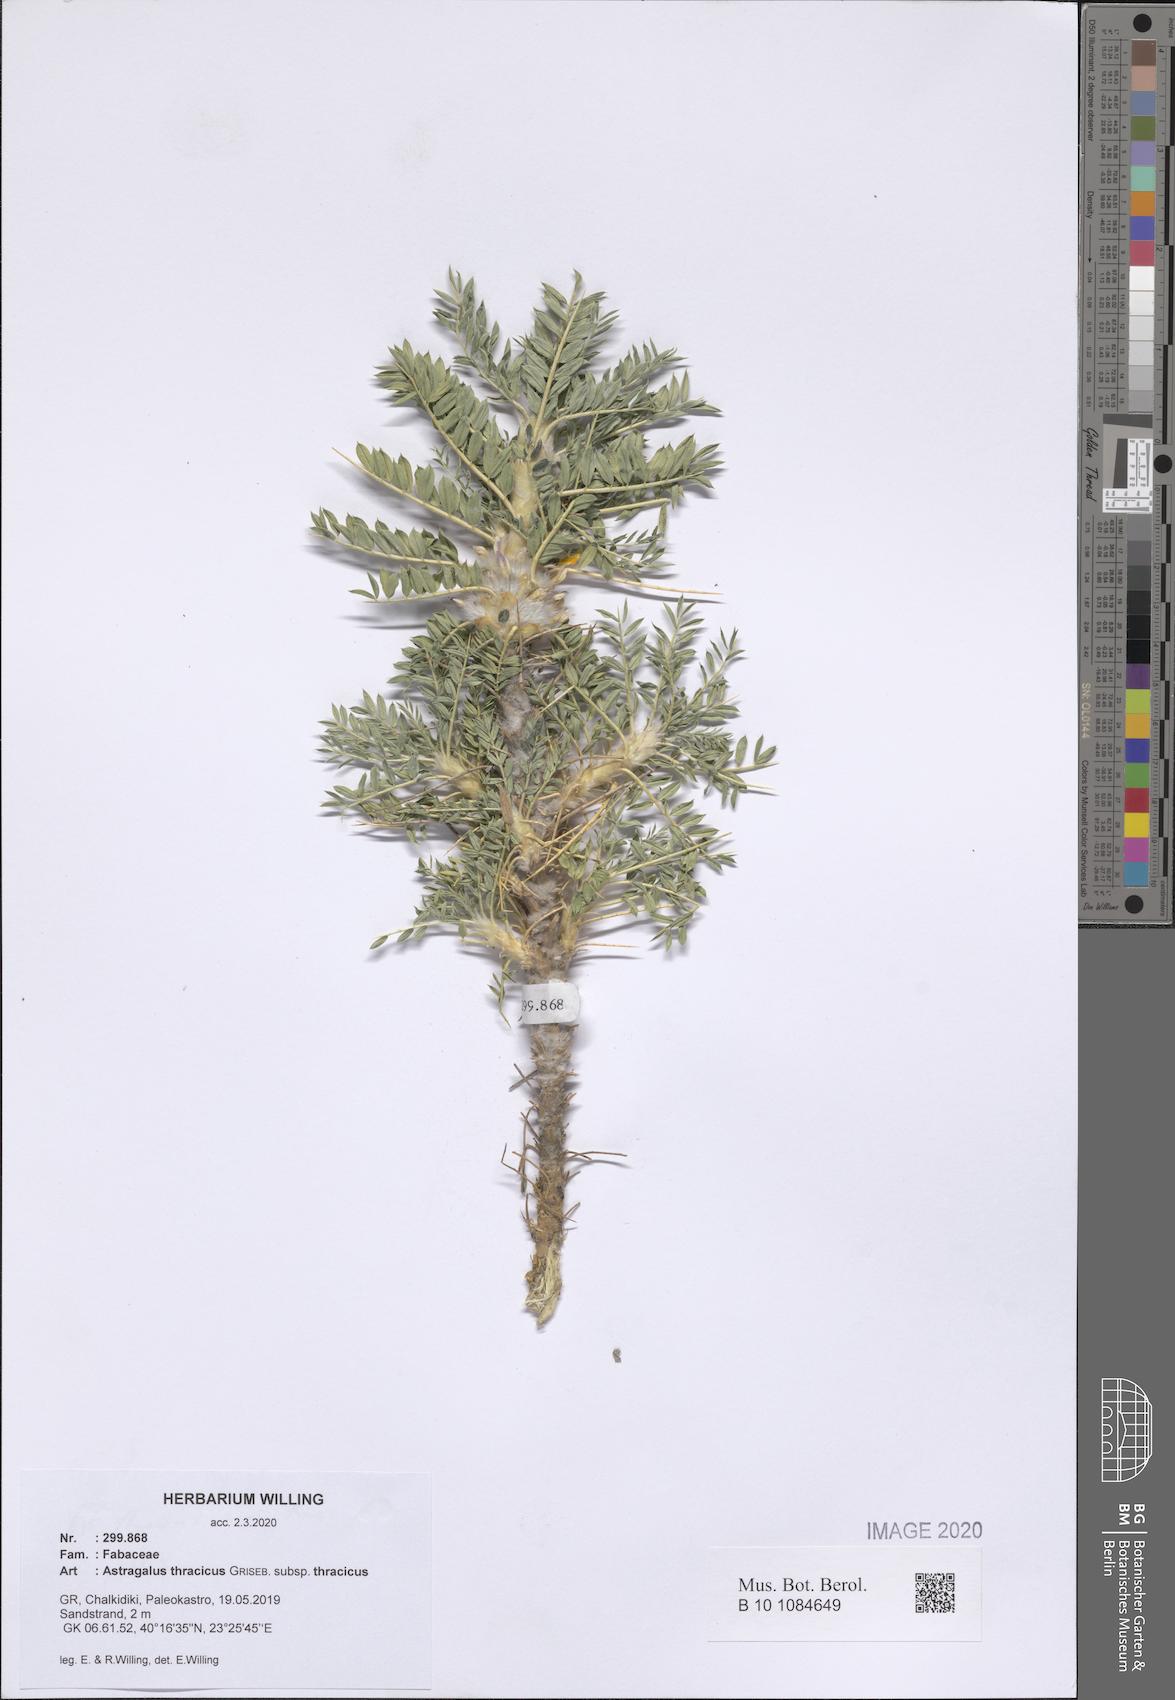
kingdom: Plantae
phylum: Tracheophyta
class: Magnoliopsida
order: Fabales
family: Fabaceae
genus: Astragalus
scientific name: Astragalus thracicus
